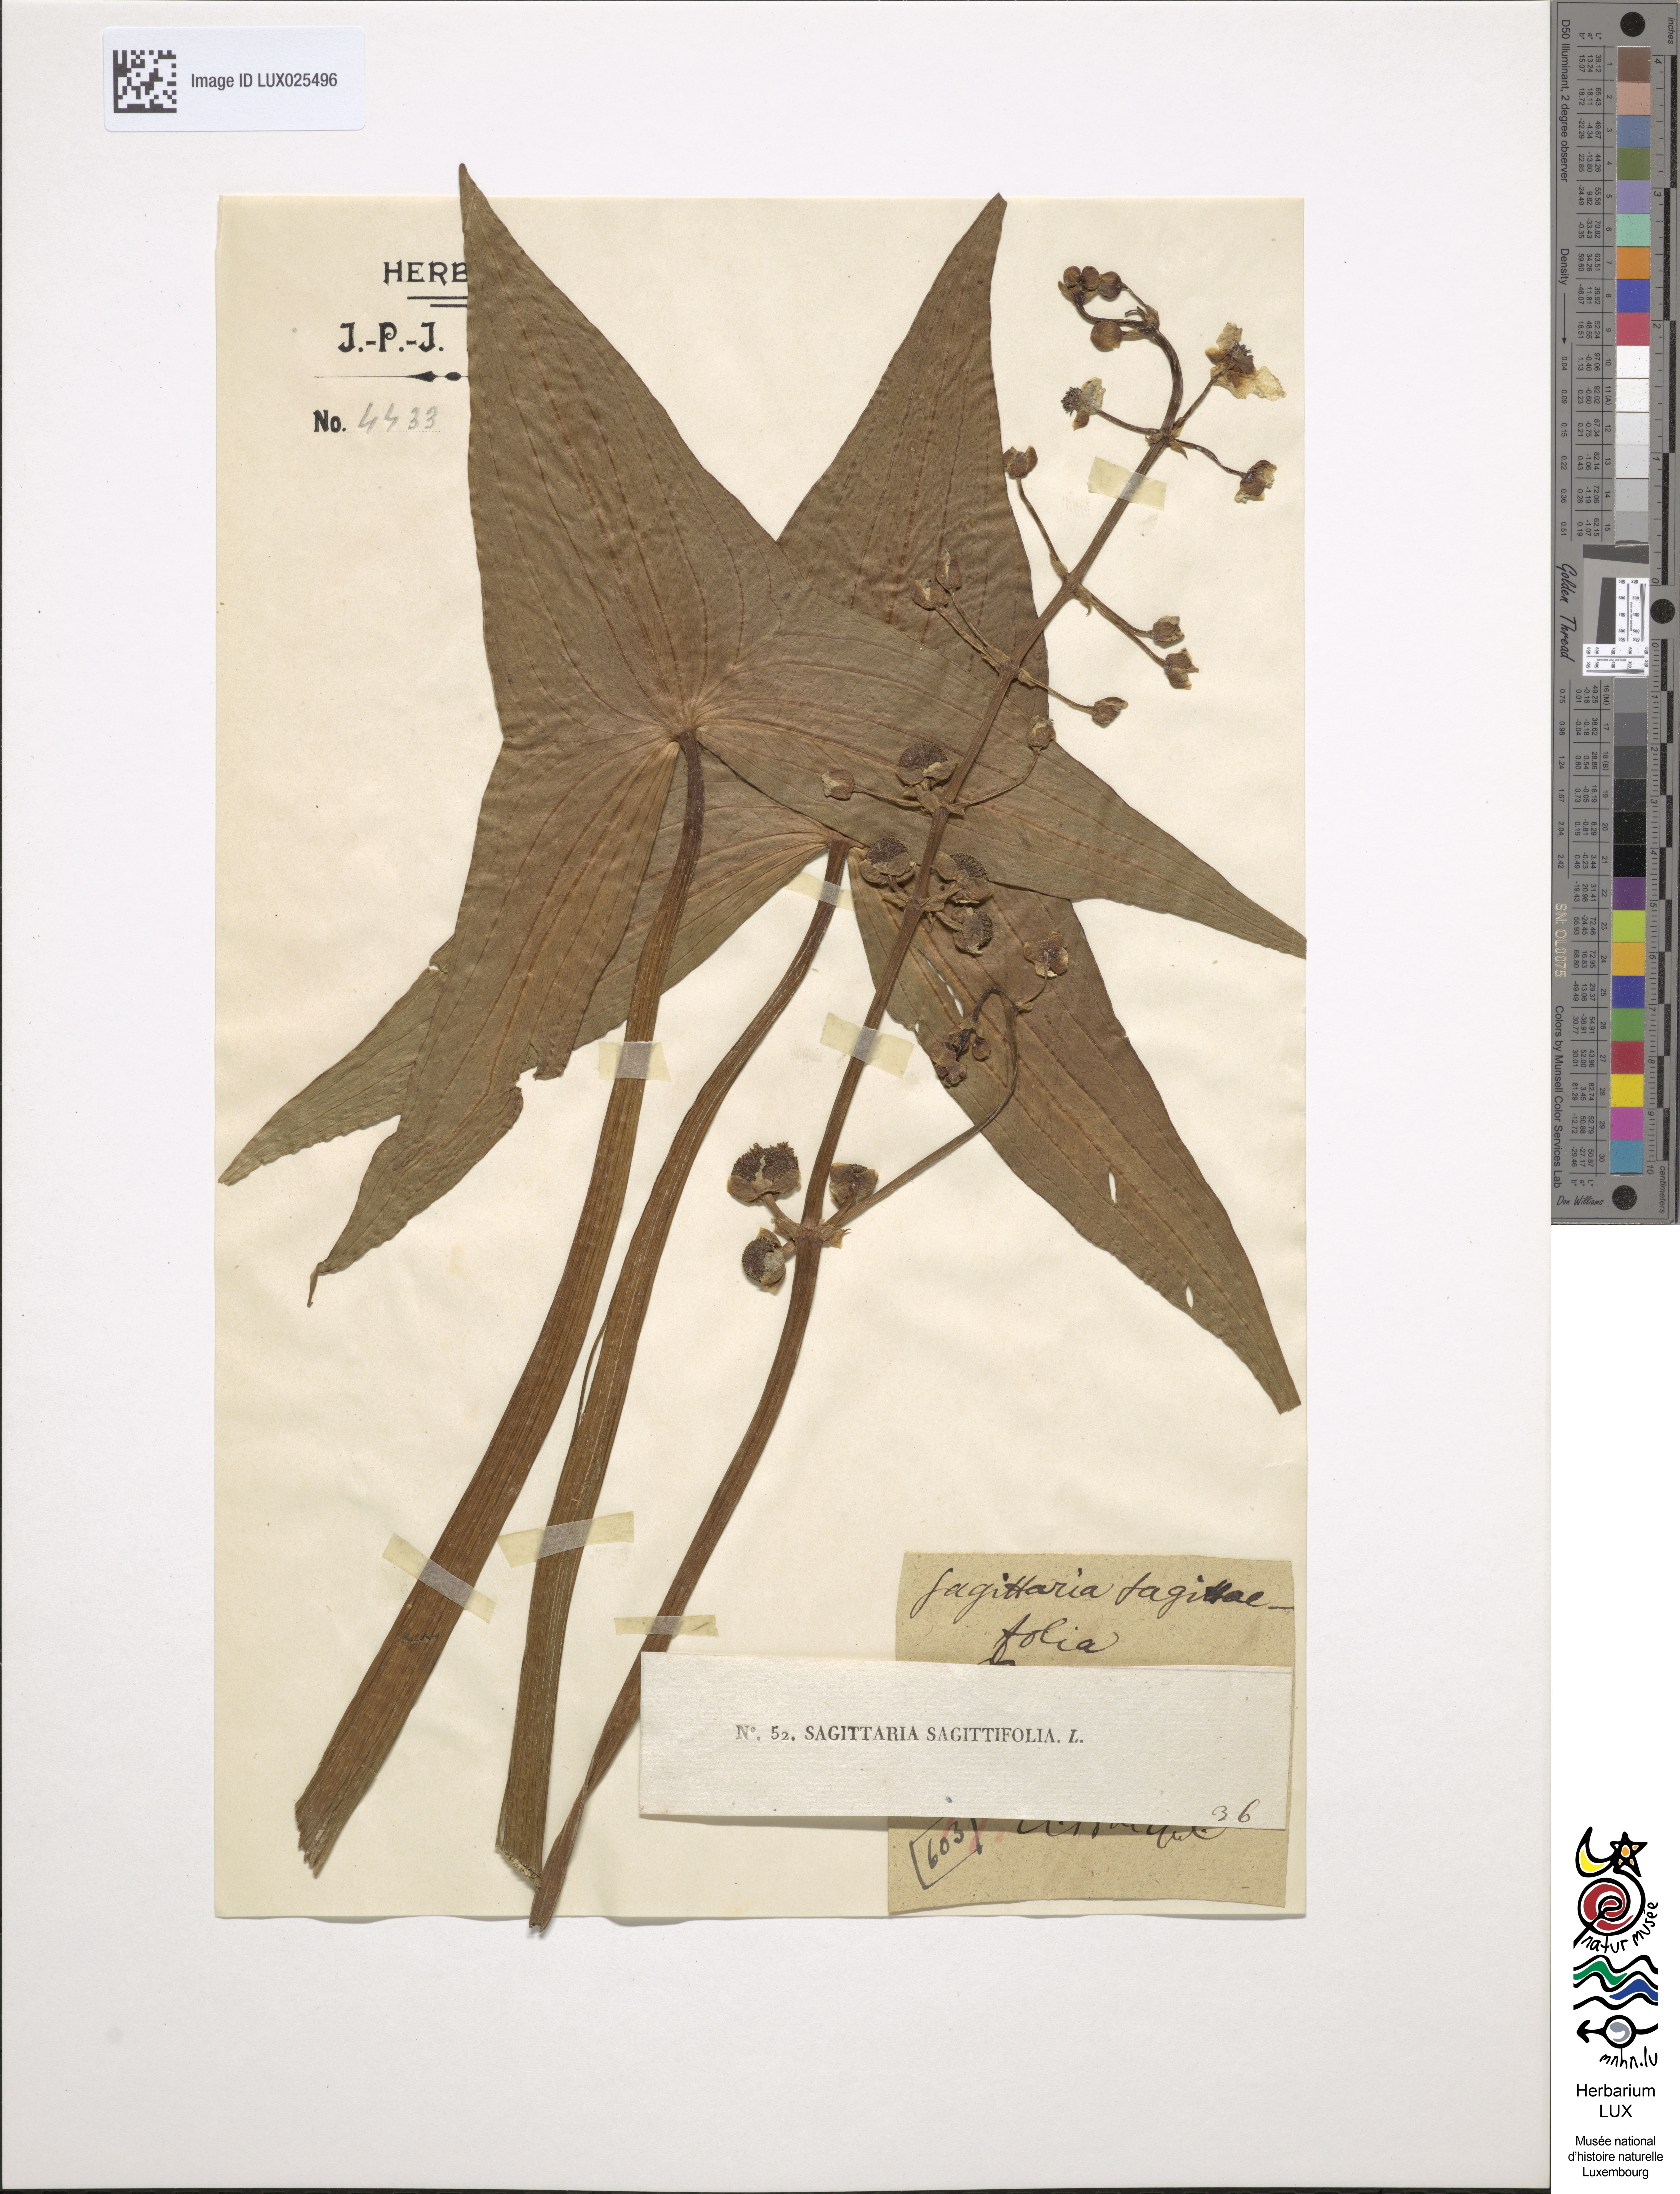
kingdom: Plantae
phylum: Tracheophyta
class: Liliopsida
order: Alismatales
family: Alismataceae
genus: Sagittaria
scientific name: Sagittaria sagittifolia
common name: Arrowhead
